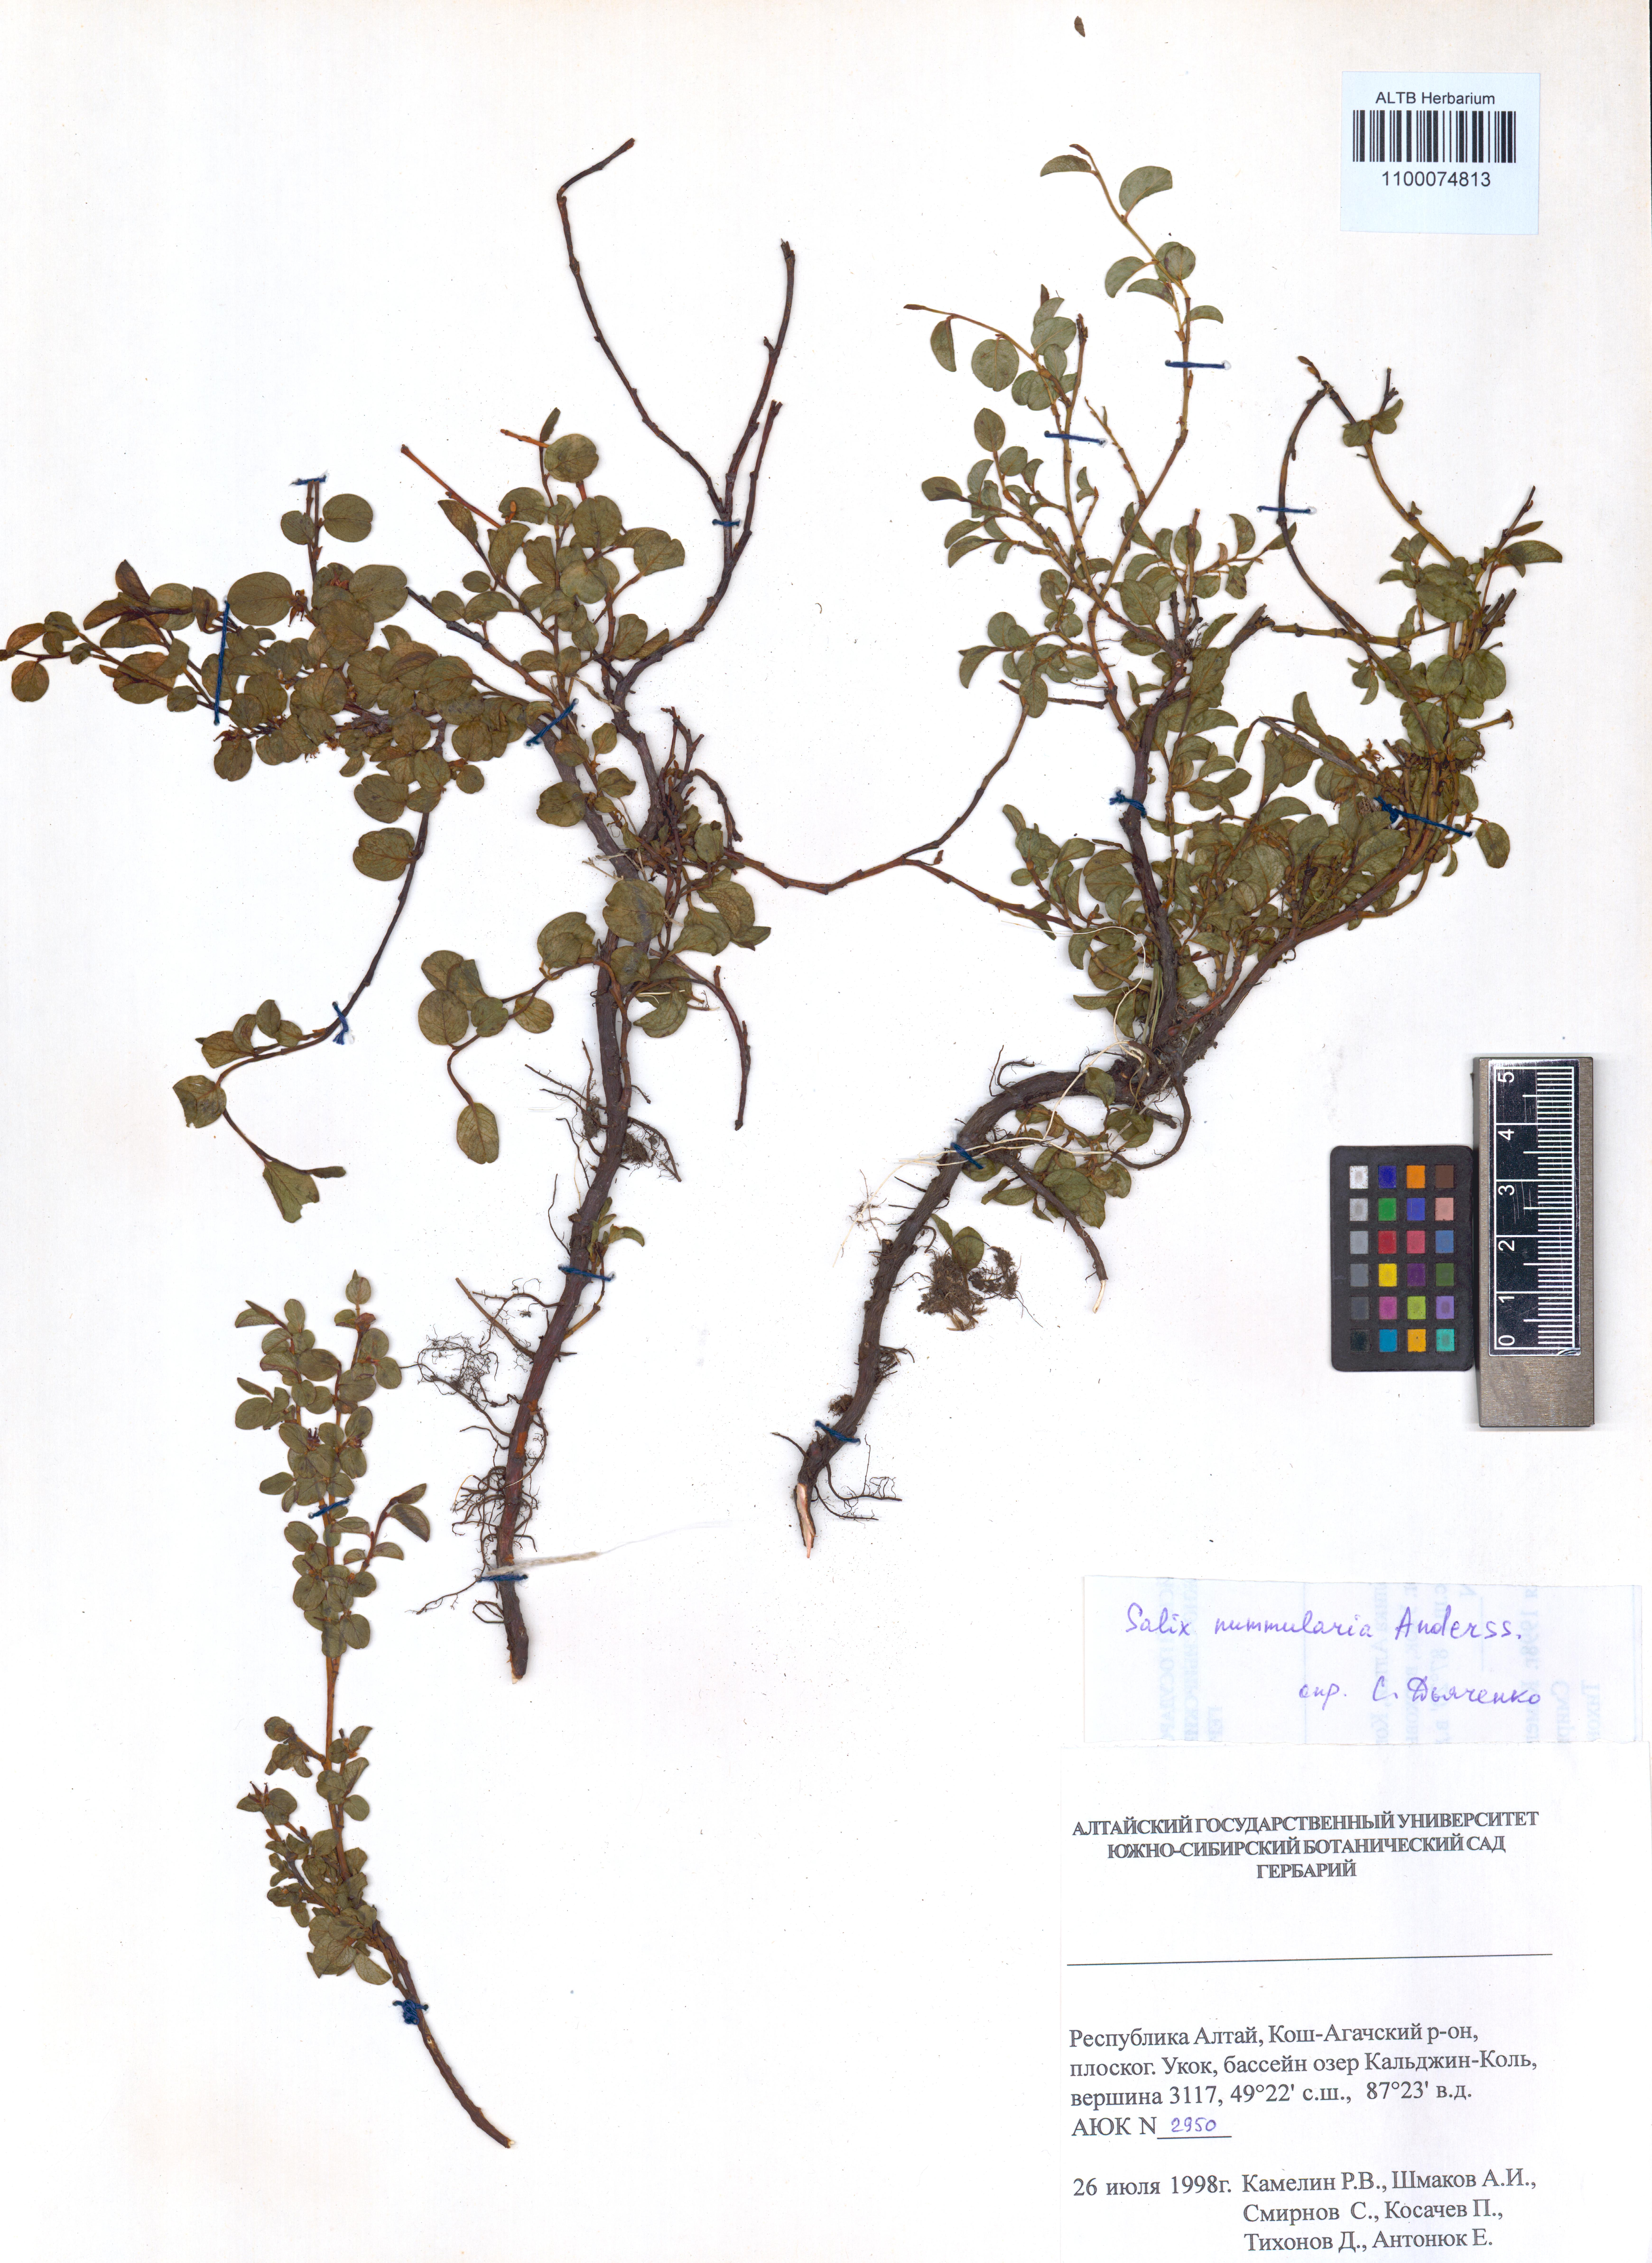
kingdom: Plantae
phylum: Tracheophyta
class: Magnoliopsida
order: Malpighiales
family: Salicaceae
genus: Salix
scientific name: Salix nummularia
